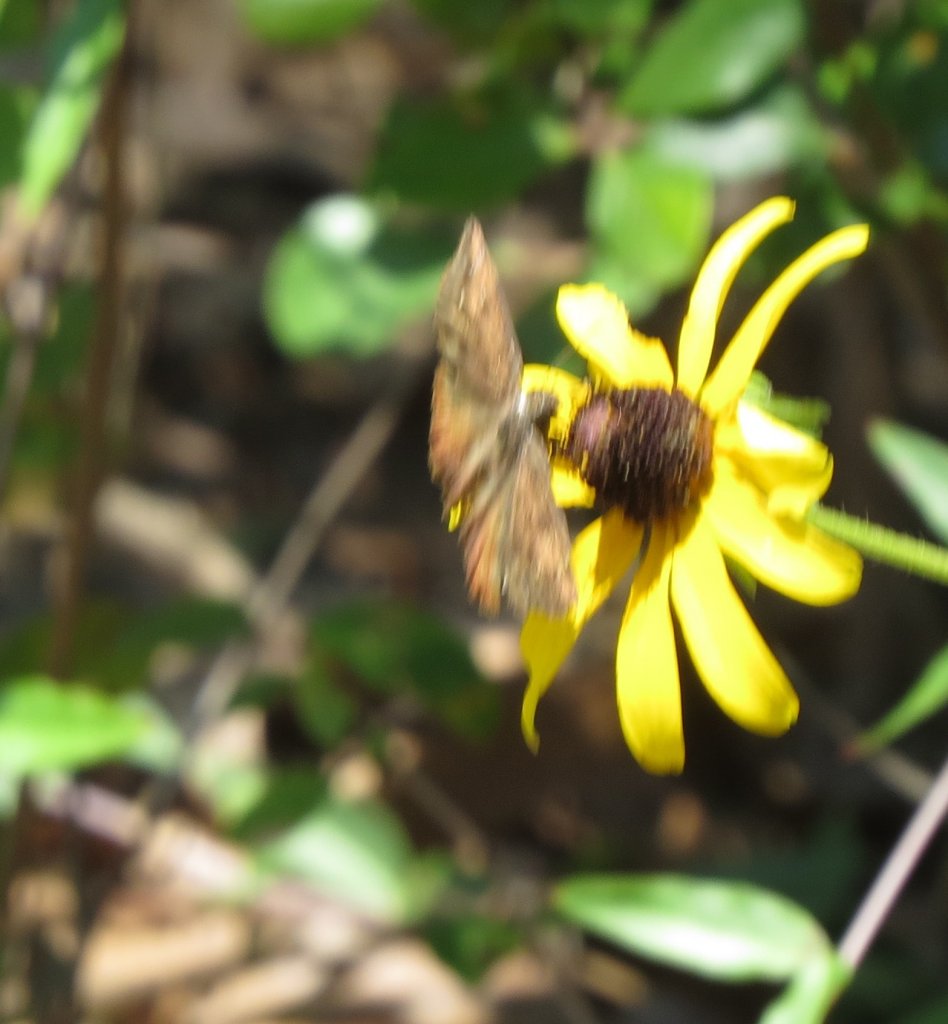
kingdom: Animalia
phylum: Arthropoda
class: Insecta
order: Lepidoptera
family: Hesperiidae
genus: Erynnis
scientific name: Erynnis zarucco
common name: Zarucco Duskywing
